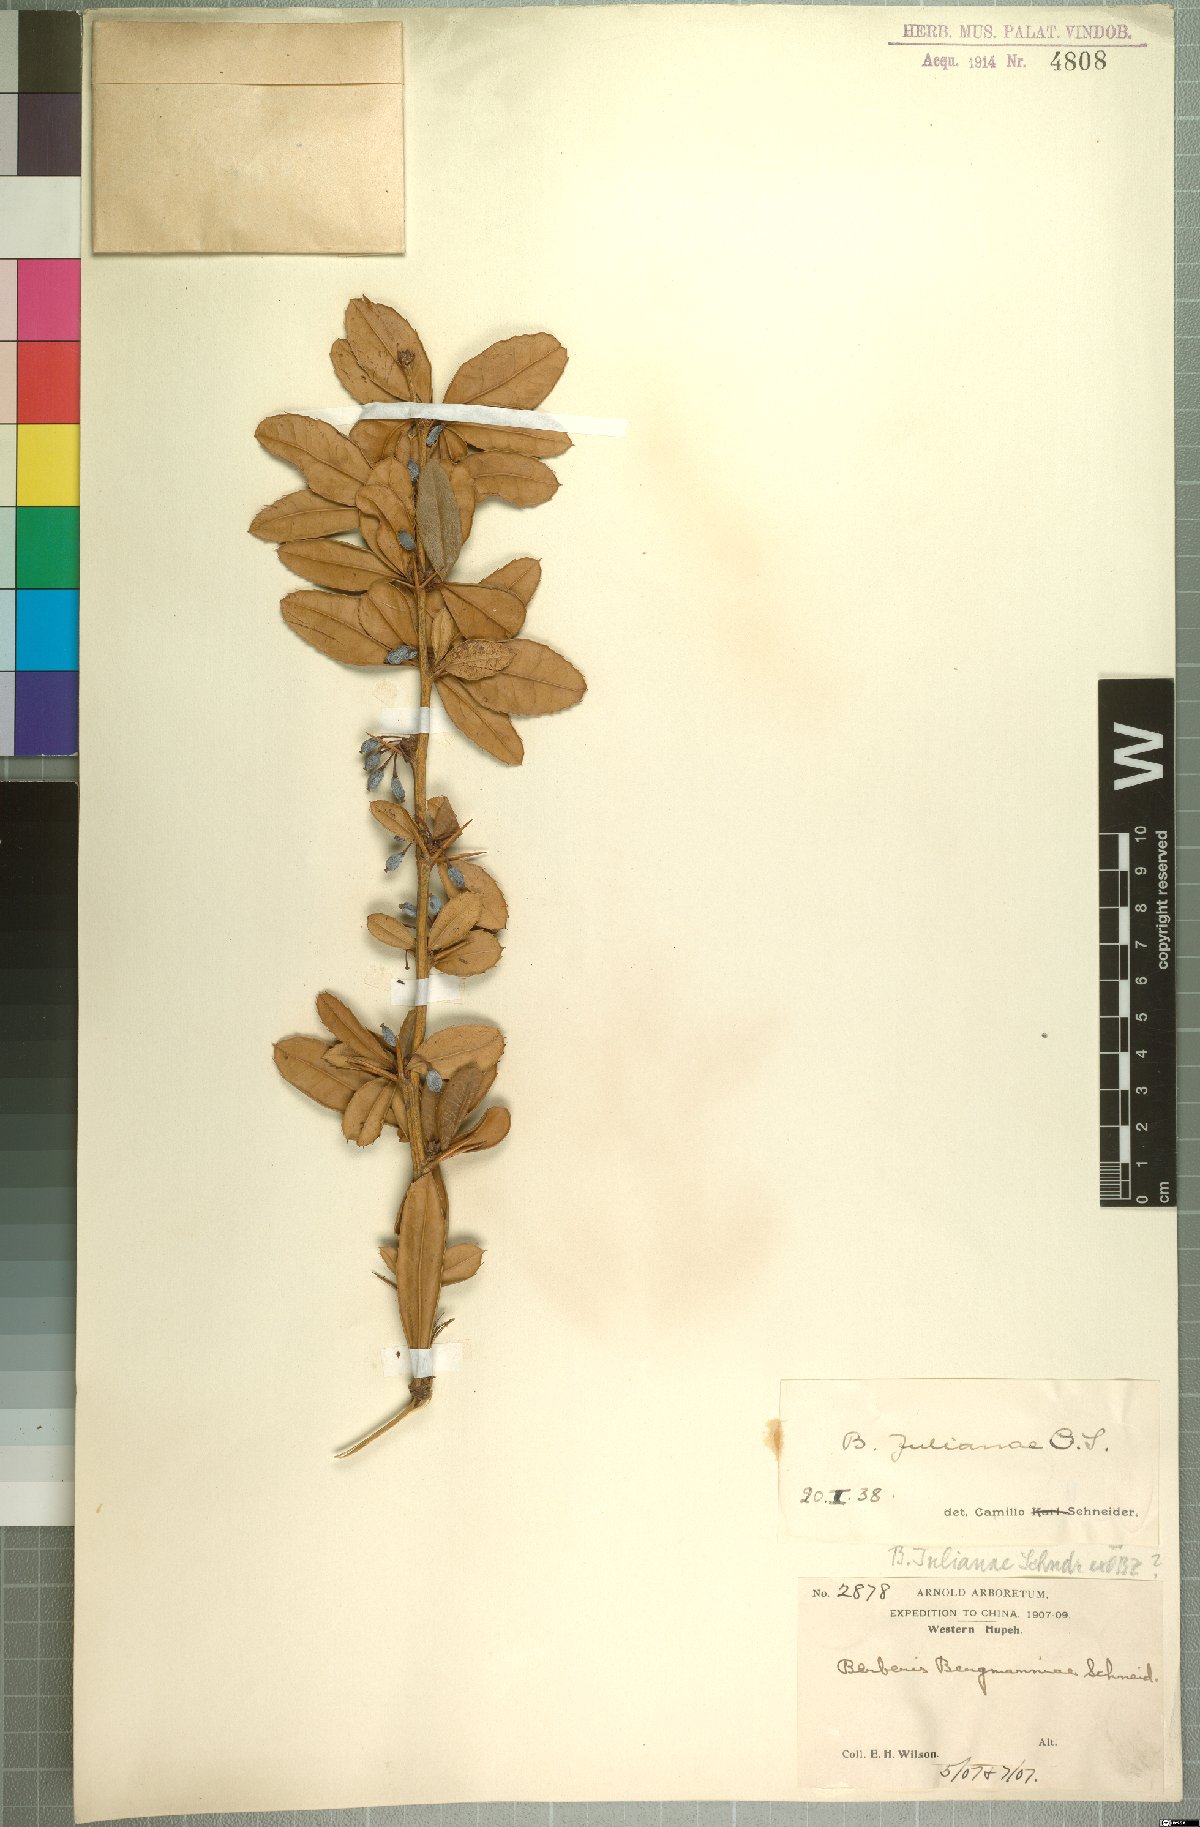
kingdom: Plantae
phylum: Tracheophyta
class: Magnoliopsida
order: Ranunculales
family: Berberidaceae
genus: Berberis
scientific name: Berberis bergmanniae
